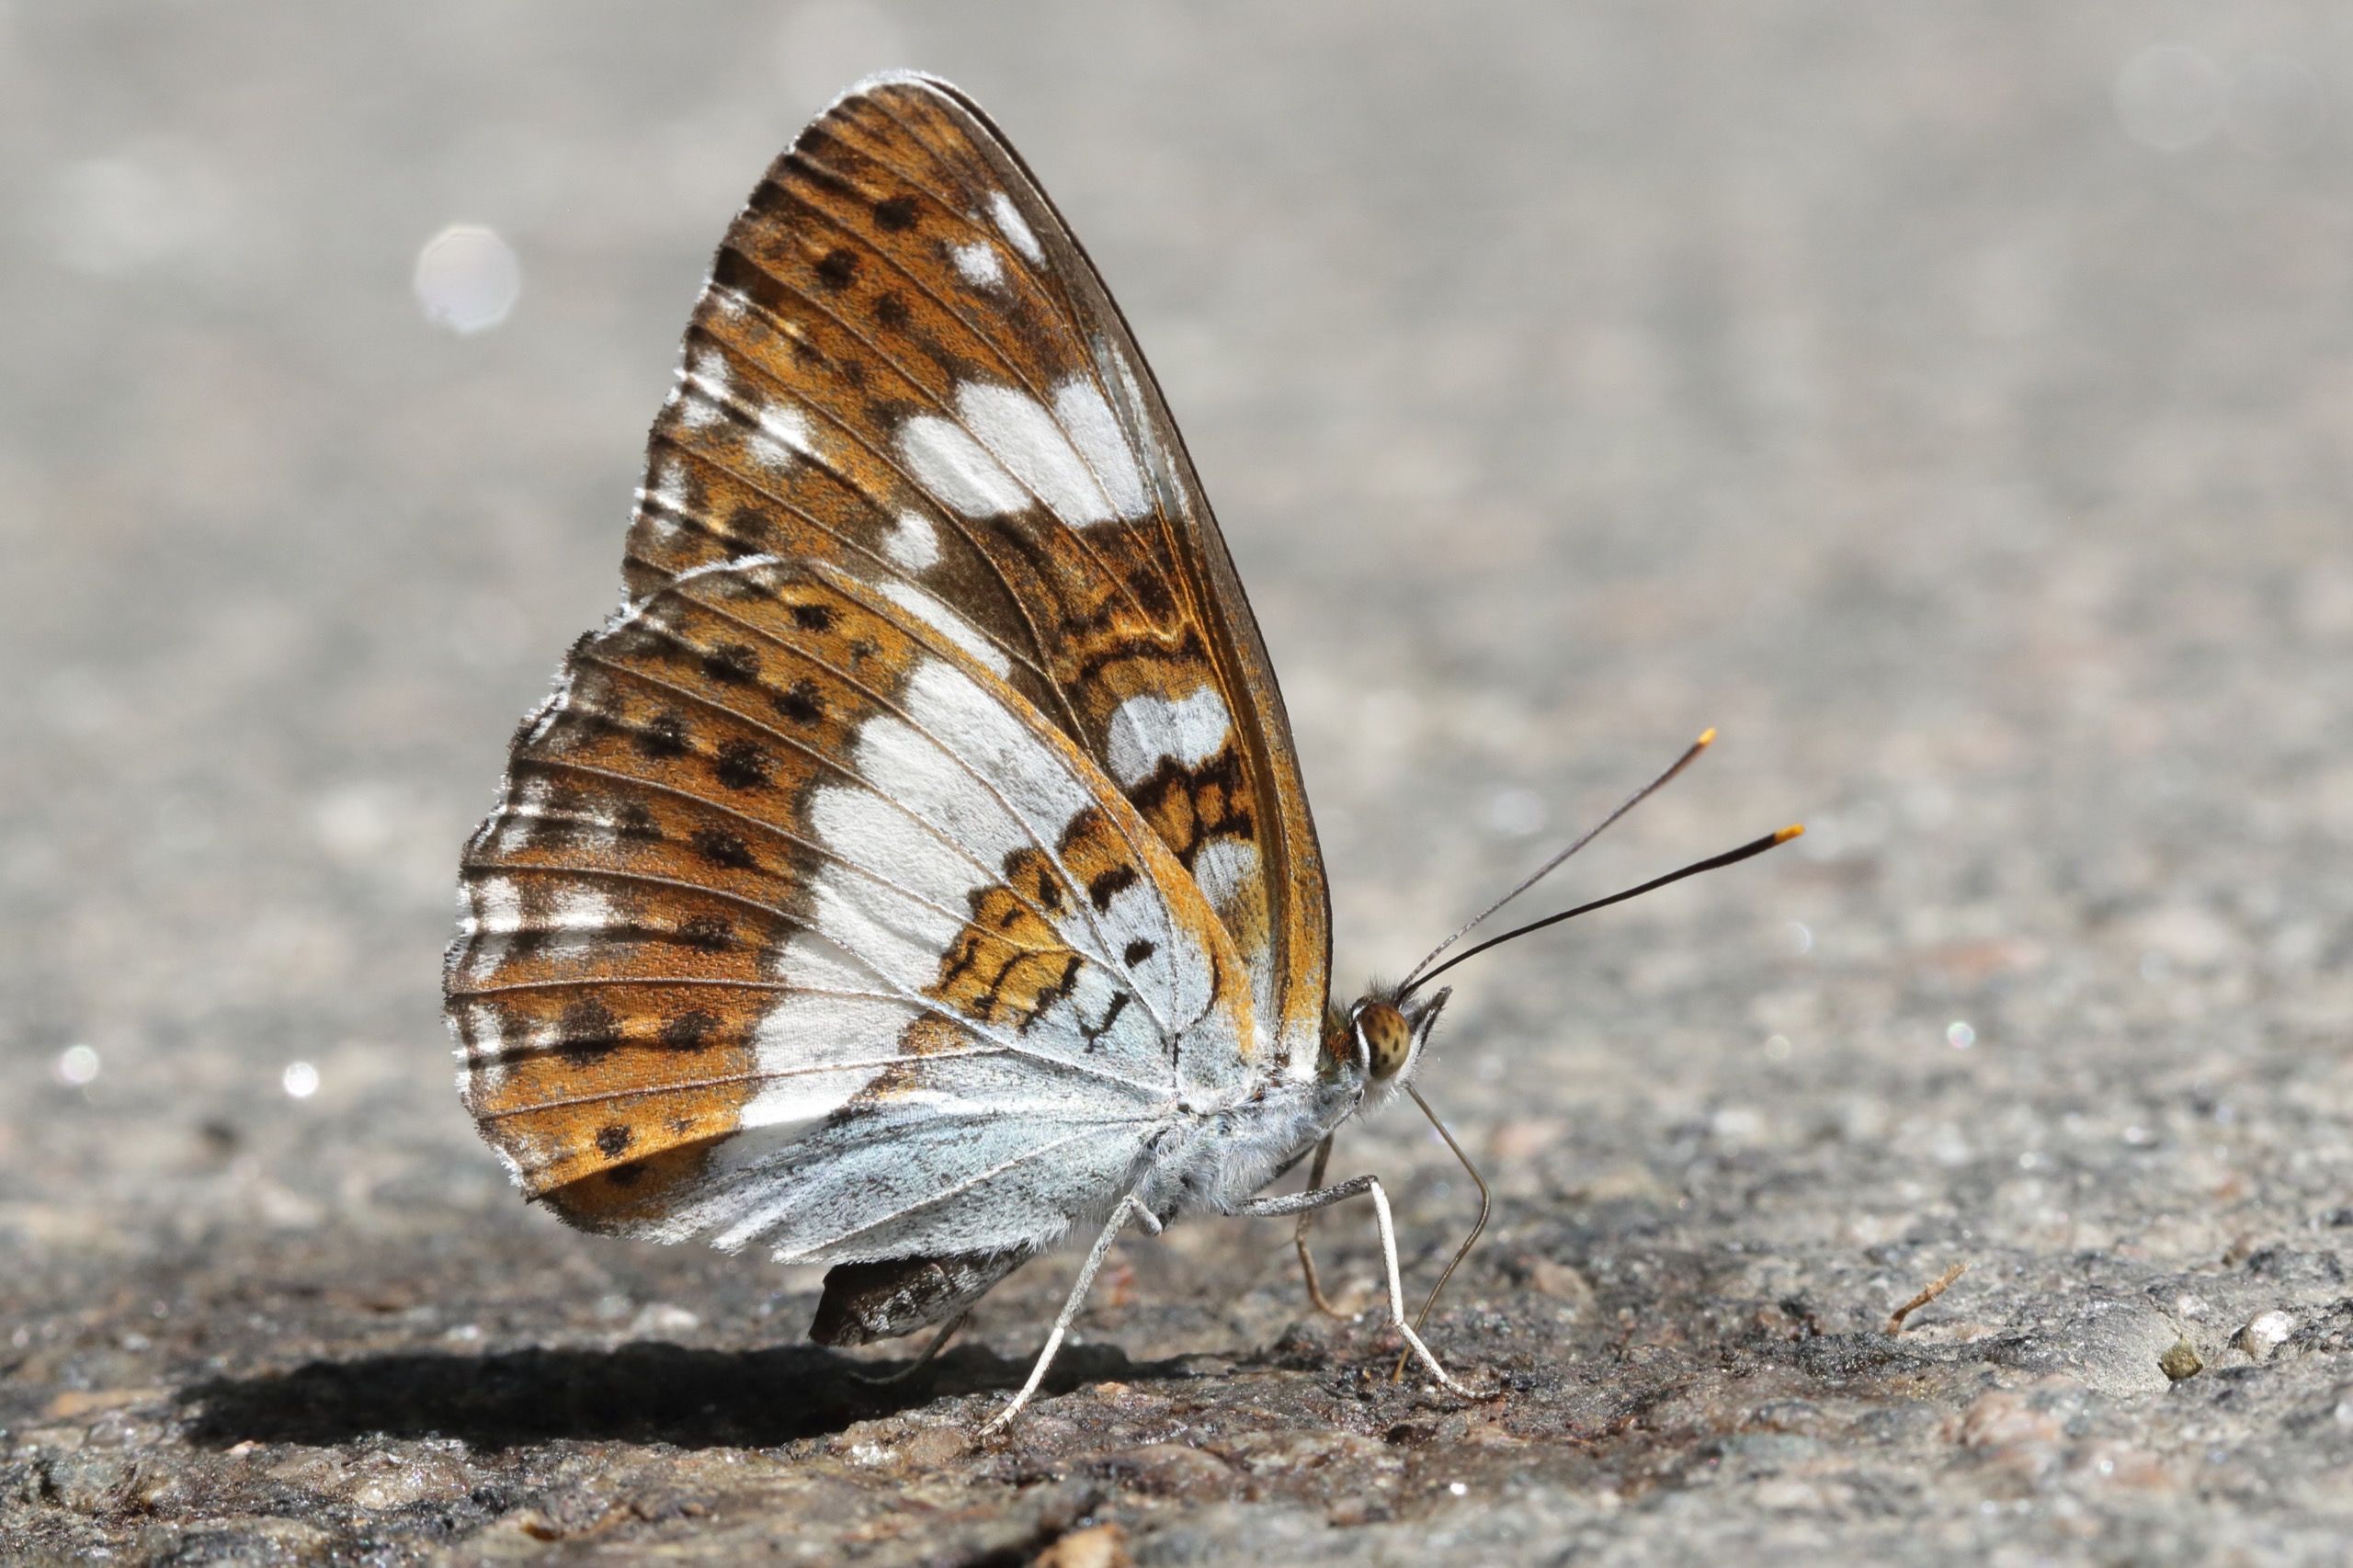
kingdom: Animalia
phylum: Arthropoda
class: Insecta
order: Lepidoptera
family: Nymphalidae
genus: Ladoga
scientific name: Ladoga camilla
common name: Hvid admiral
